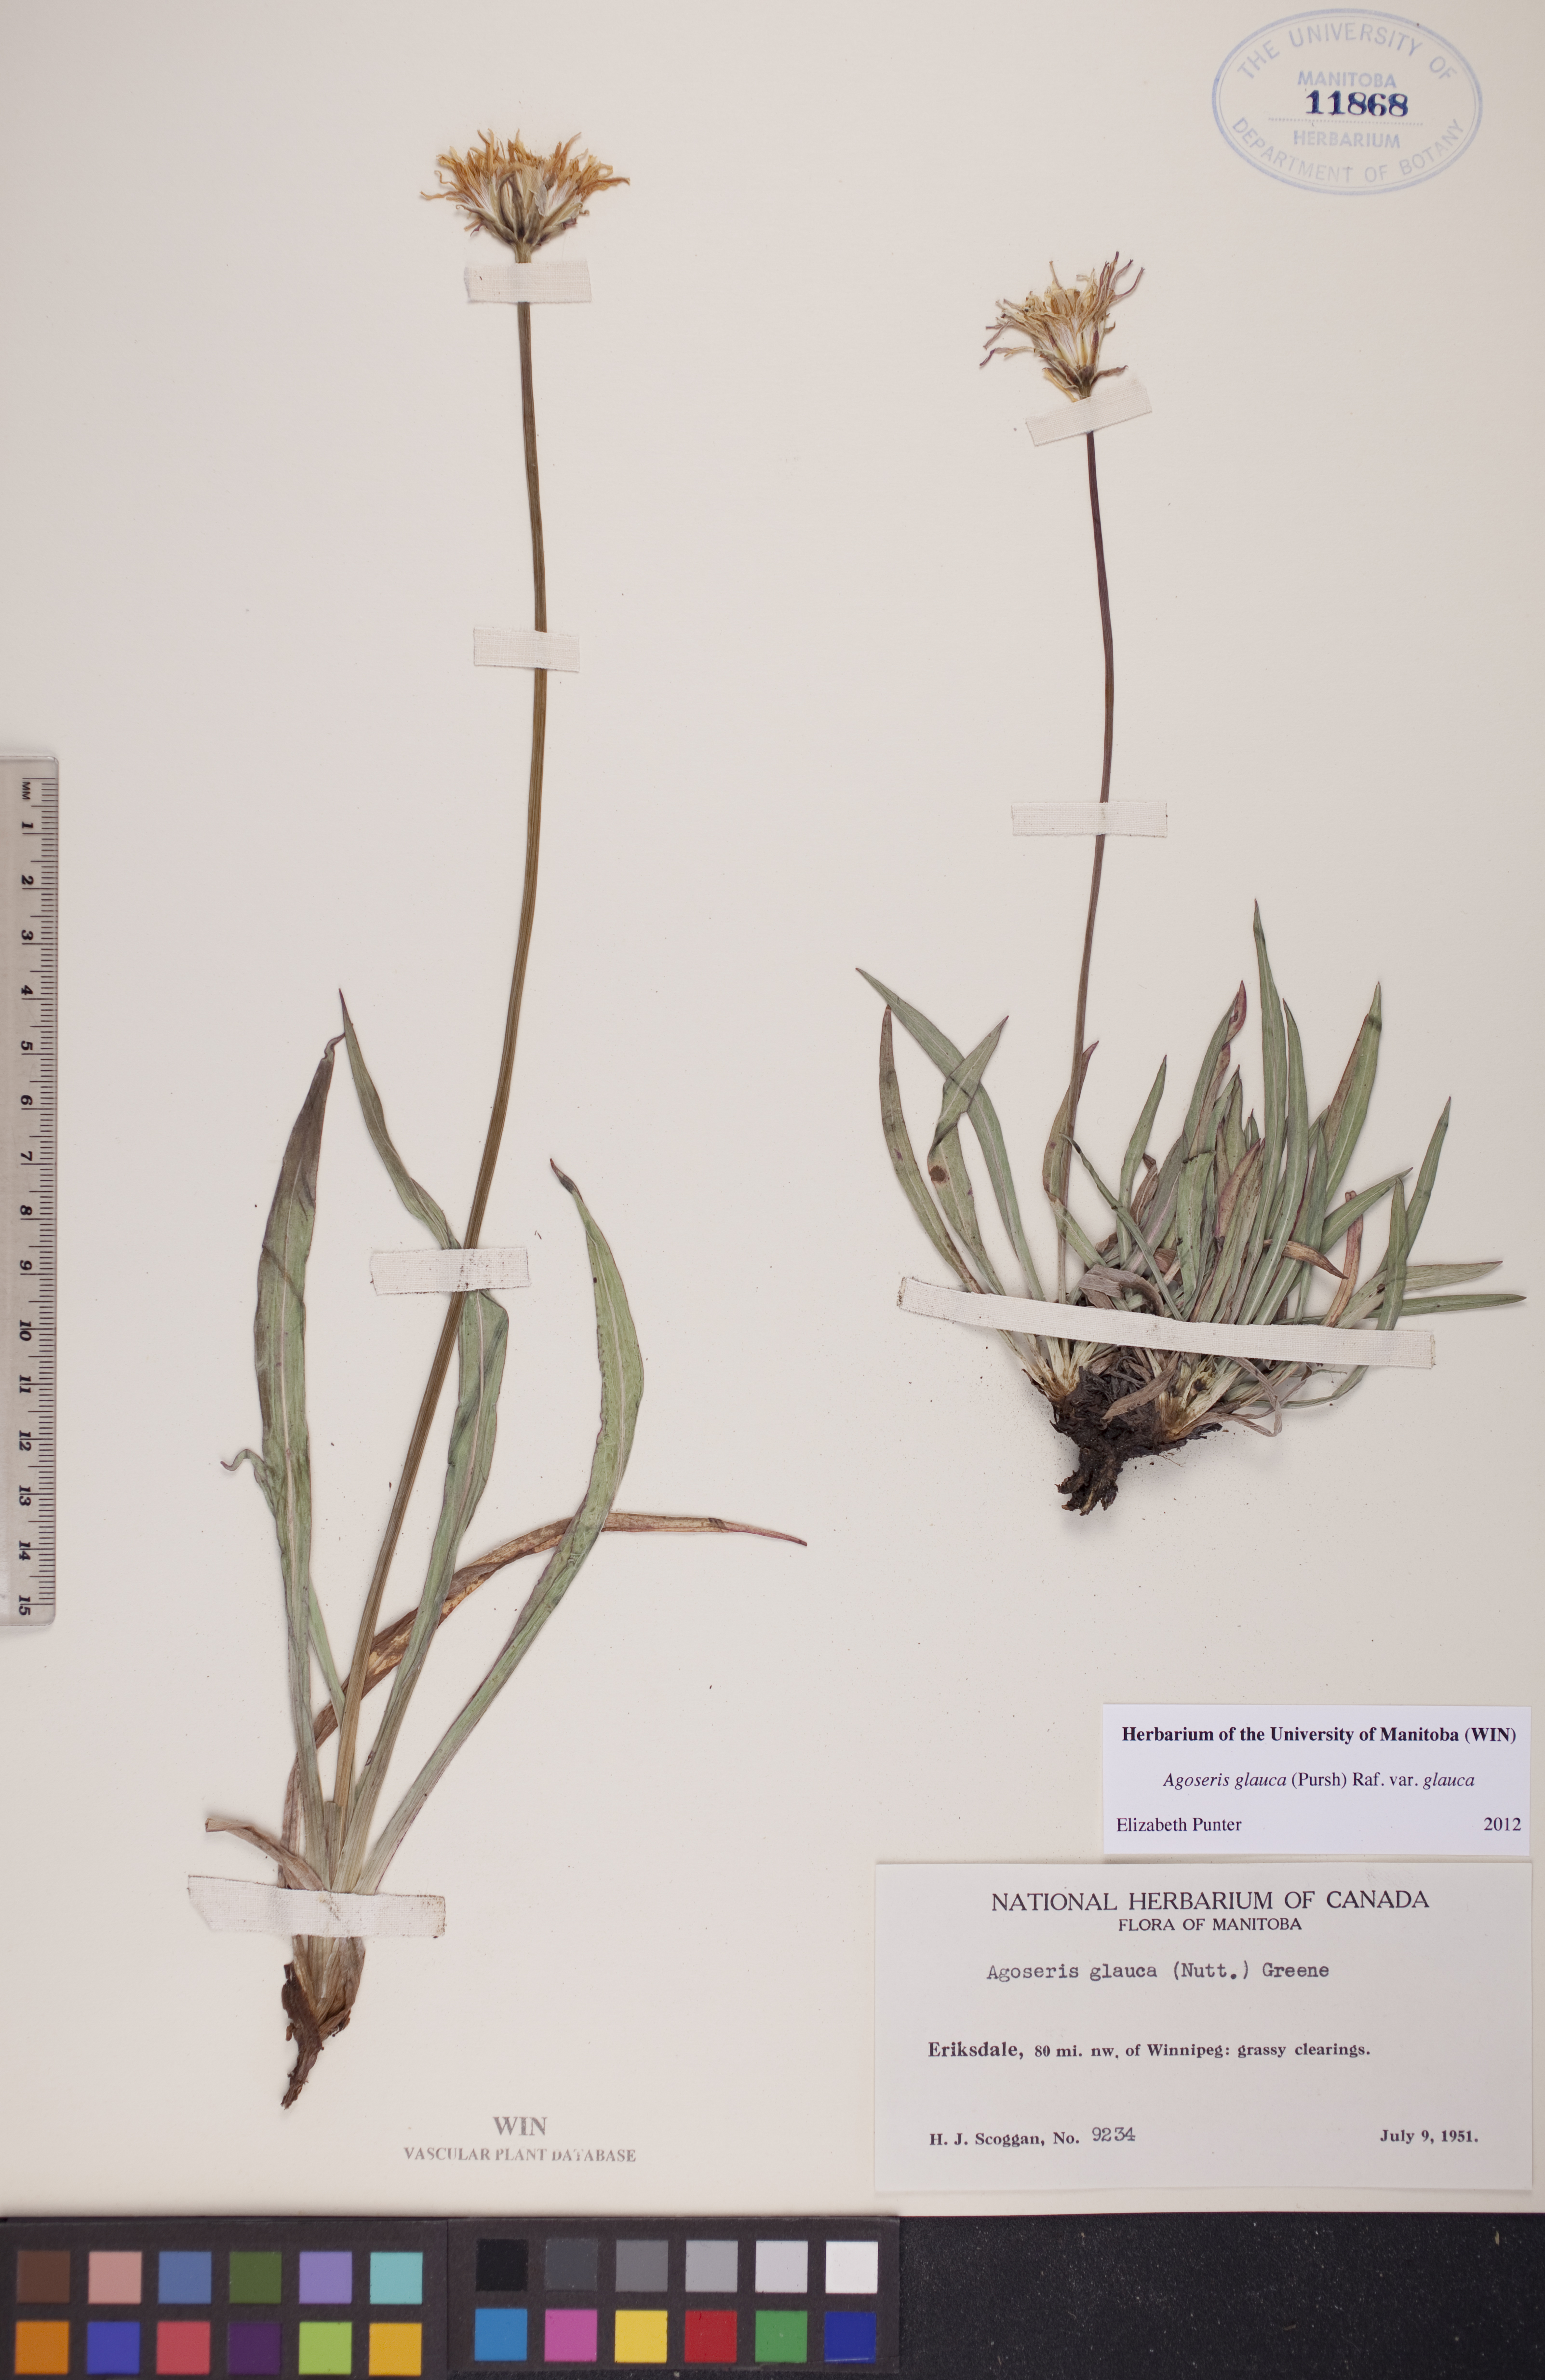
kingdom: Plantae
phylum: Tracheophyta
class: Magnoliopsida
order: Asterales
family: Asteraceae
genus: Agoseris
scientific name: Agoseris glauca
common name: Prairie agoseris
